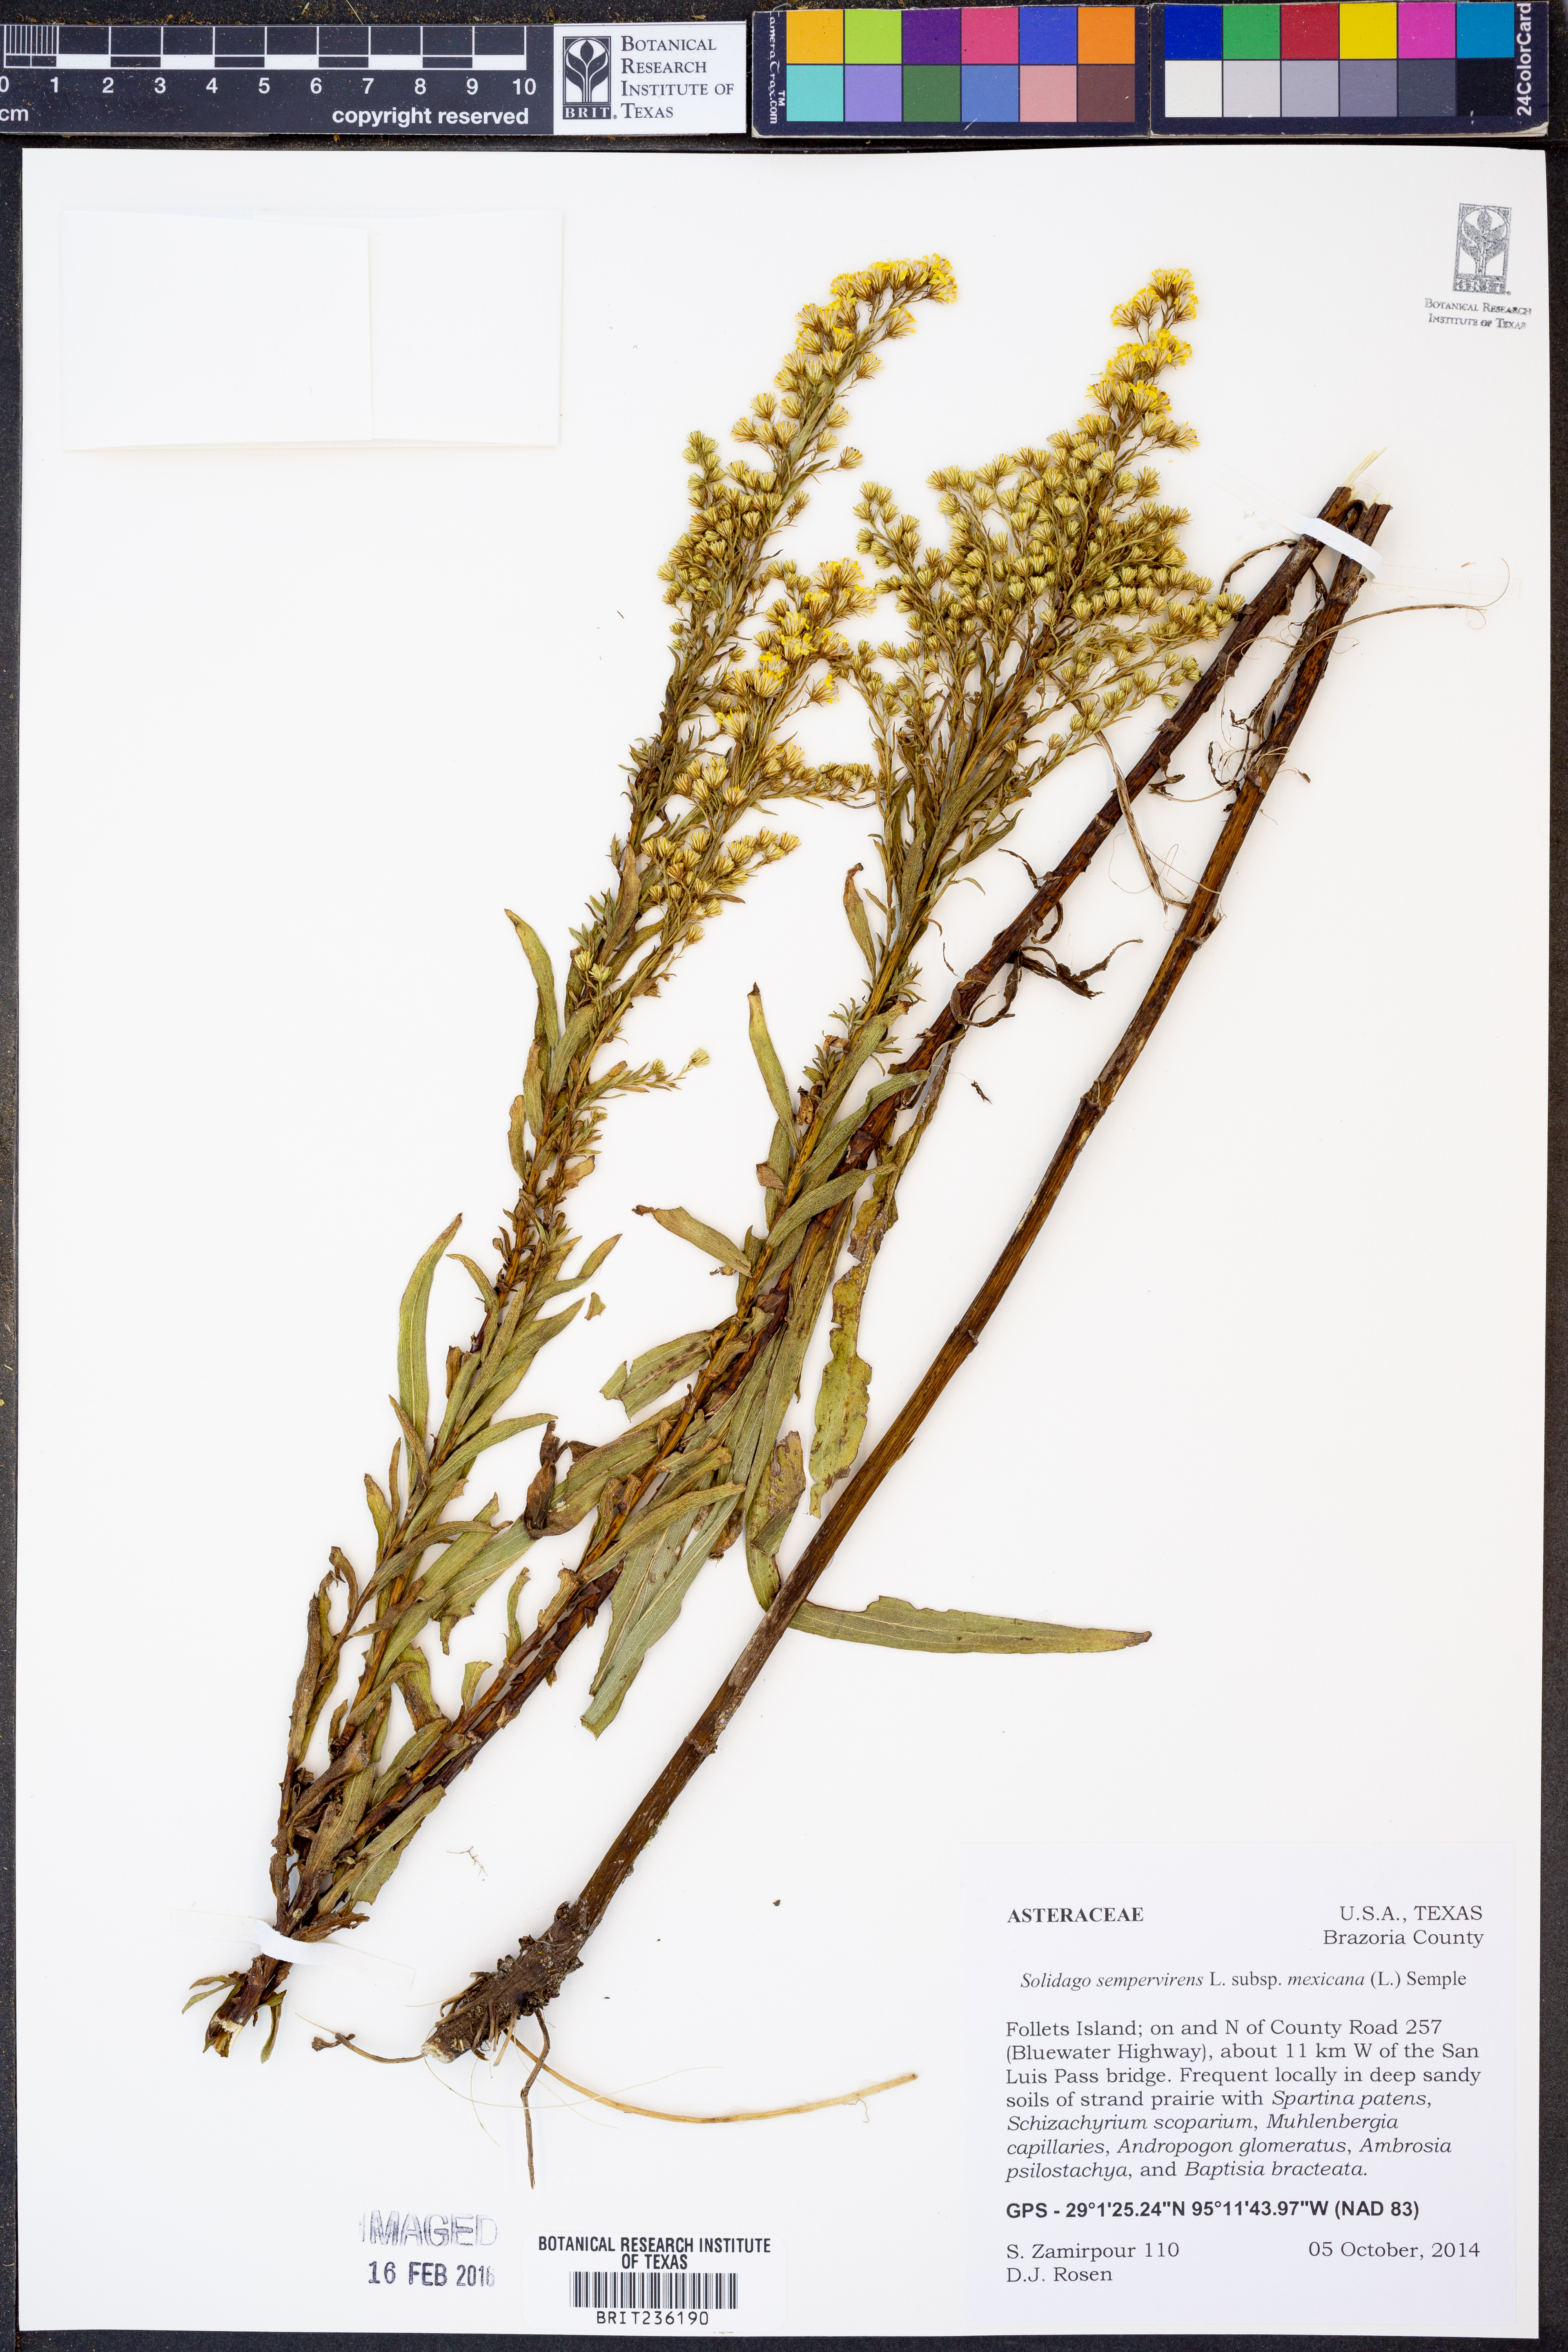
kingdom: Plantae
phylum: Tracheophyta
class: Magnoliopsida
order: Asterales
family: Asteraceae
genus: Solidago
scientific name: Solidago mexicana
